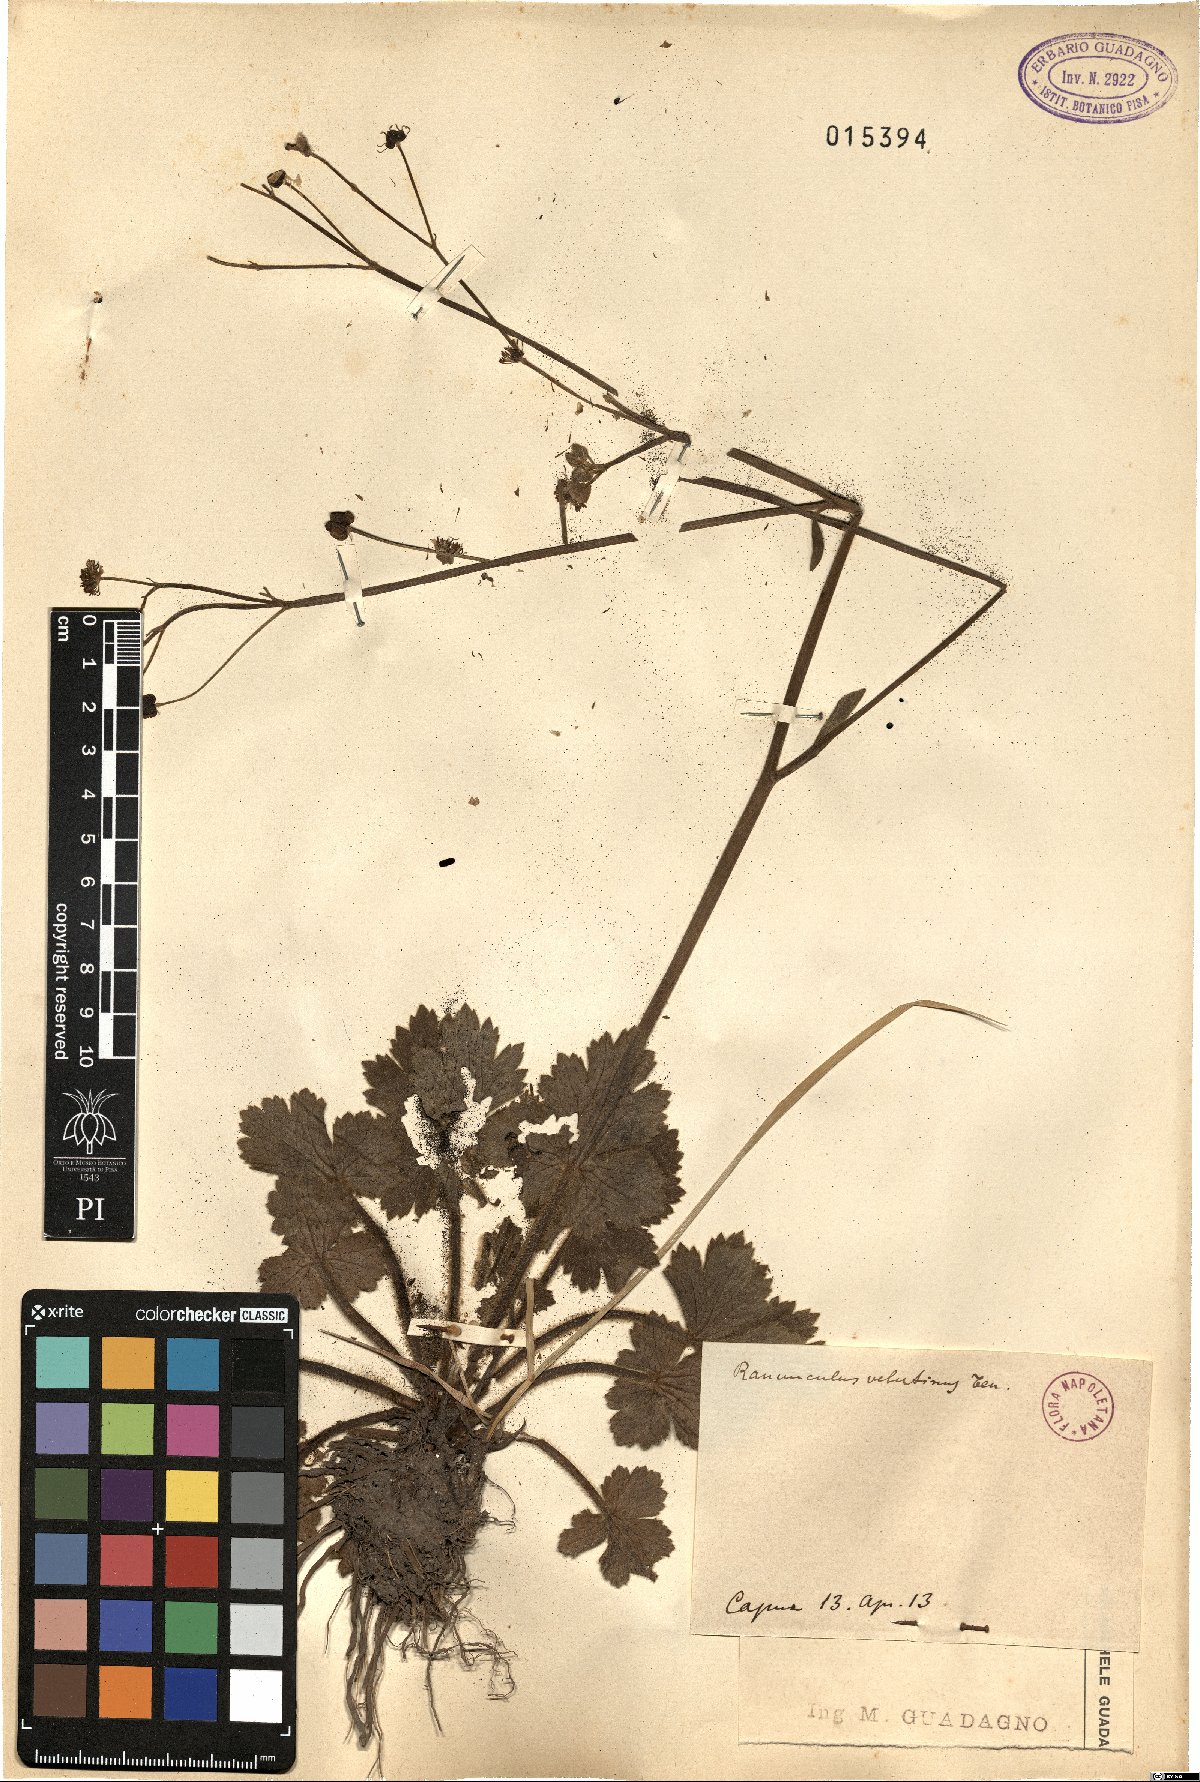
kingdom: Plantae
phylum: Tracheophyta
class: Magnoliopsida
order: Ranunculales
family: Ranunculaceae
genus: Ranunculus
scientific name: Ranunculus velutinus
